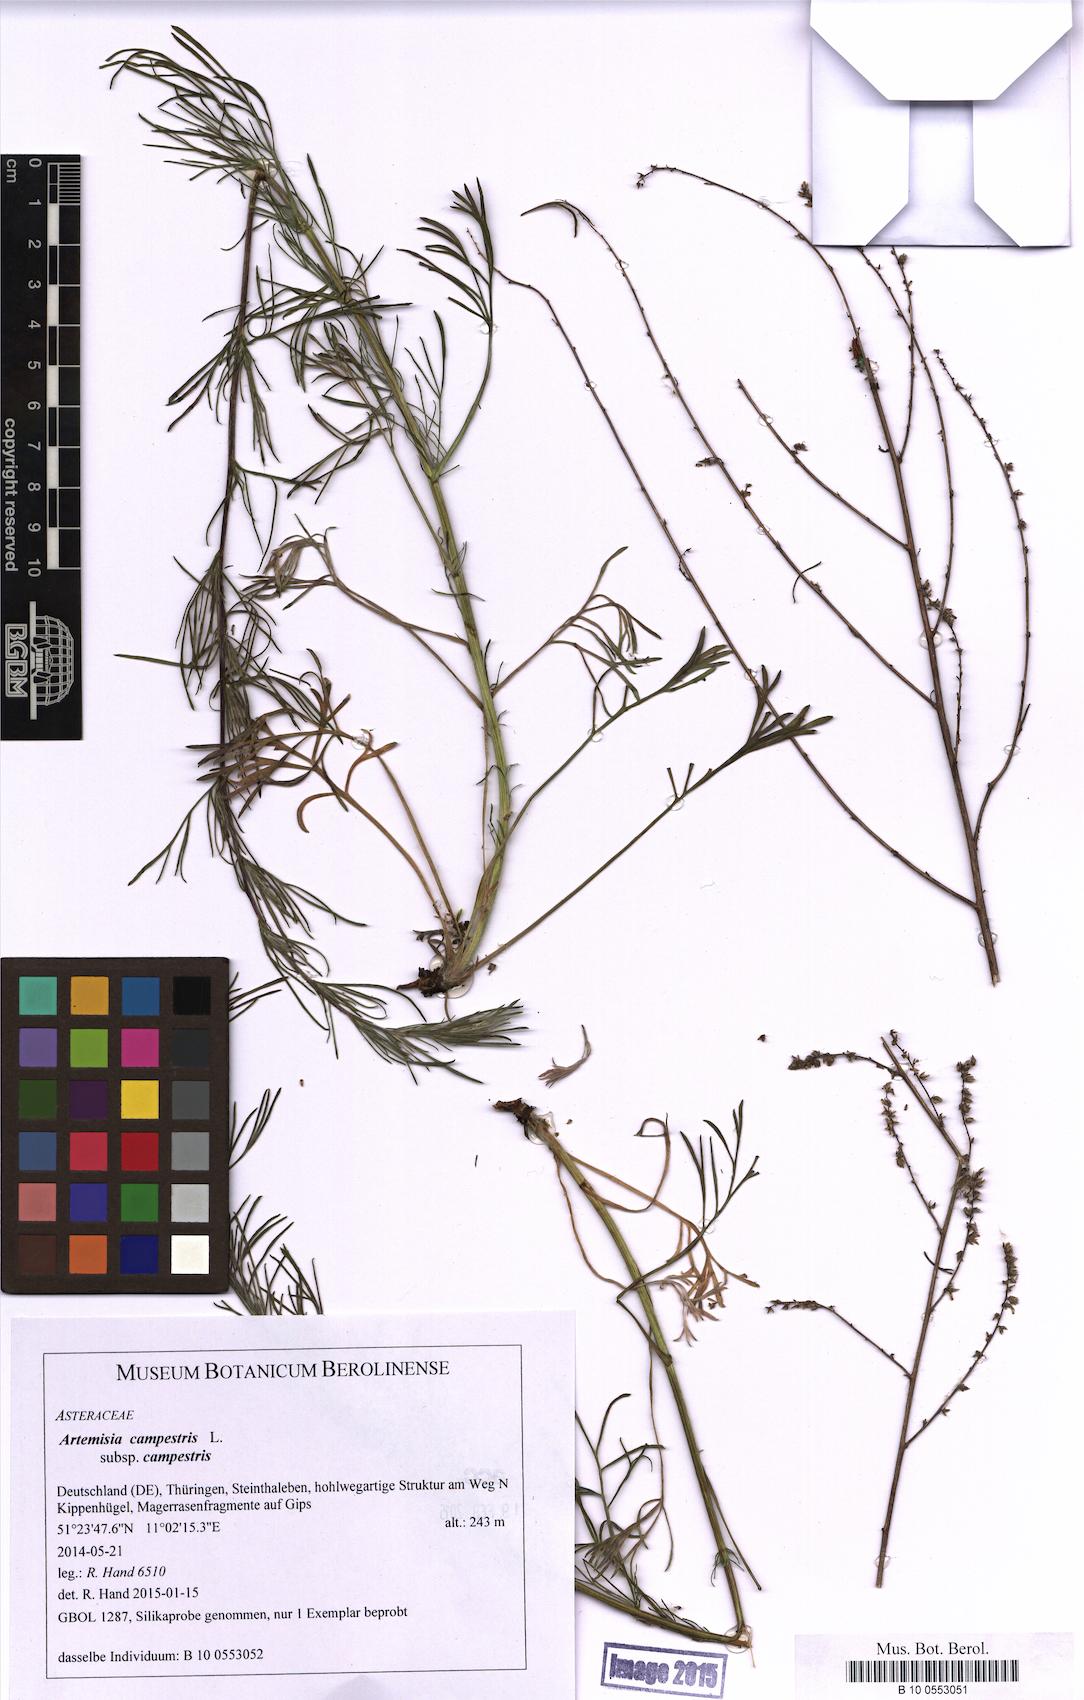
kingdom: Plantae
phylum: Tracheophyta
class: Magnoliopsida
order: Asterales
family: Asteraceae
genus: Artemisia
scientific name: Artemisia campestris
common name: Field wormwood
